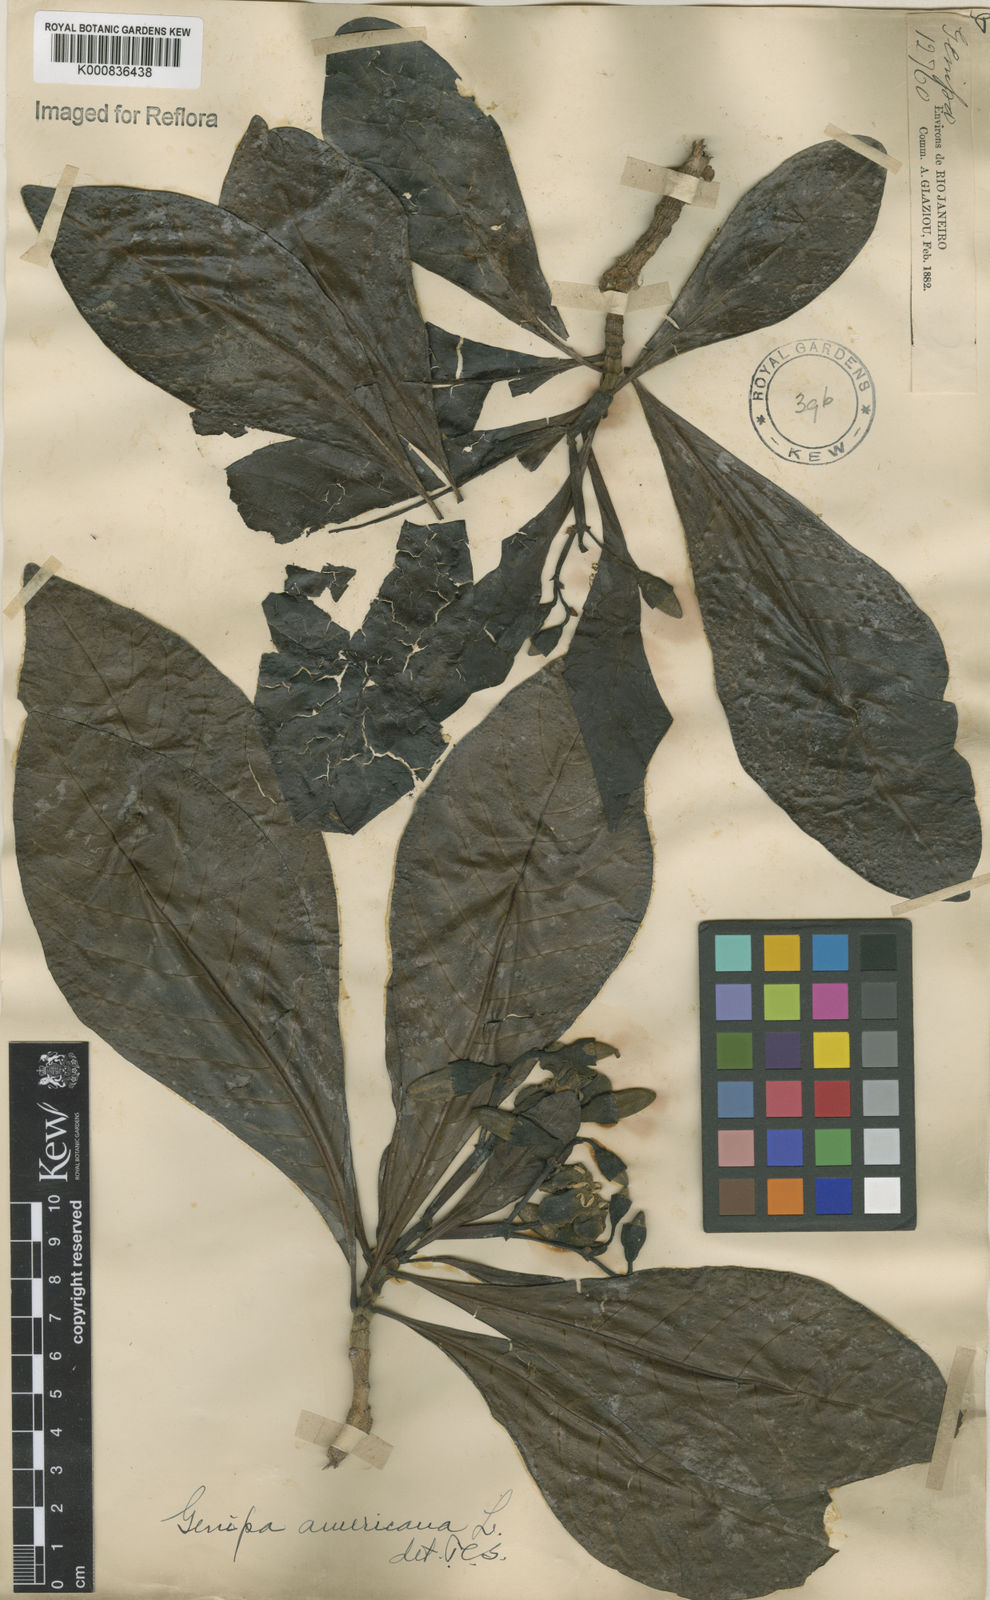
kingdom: Plantae
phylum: Tracheophyta
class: Magnoliopsida
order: Gentianales
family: Rubiaceae
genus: Genipa
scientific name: Genipa americana
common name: Genipap
